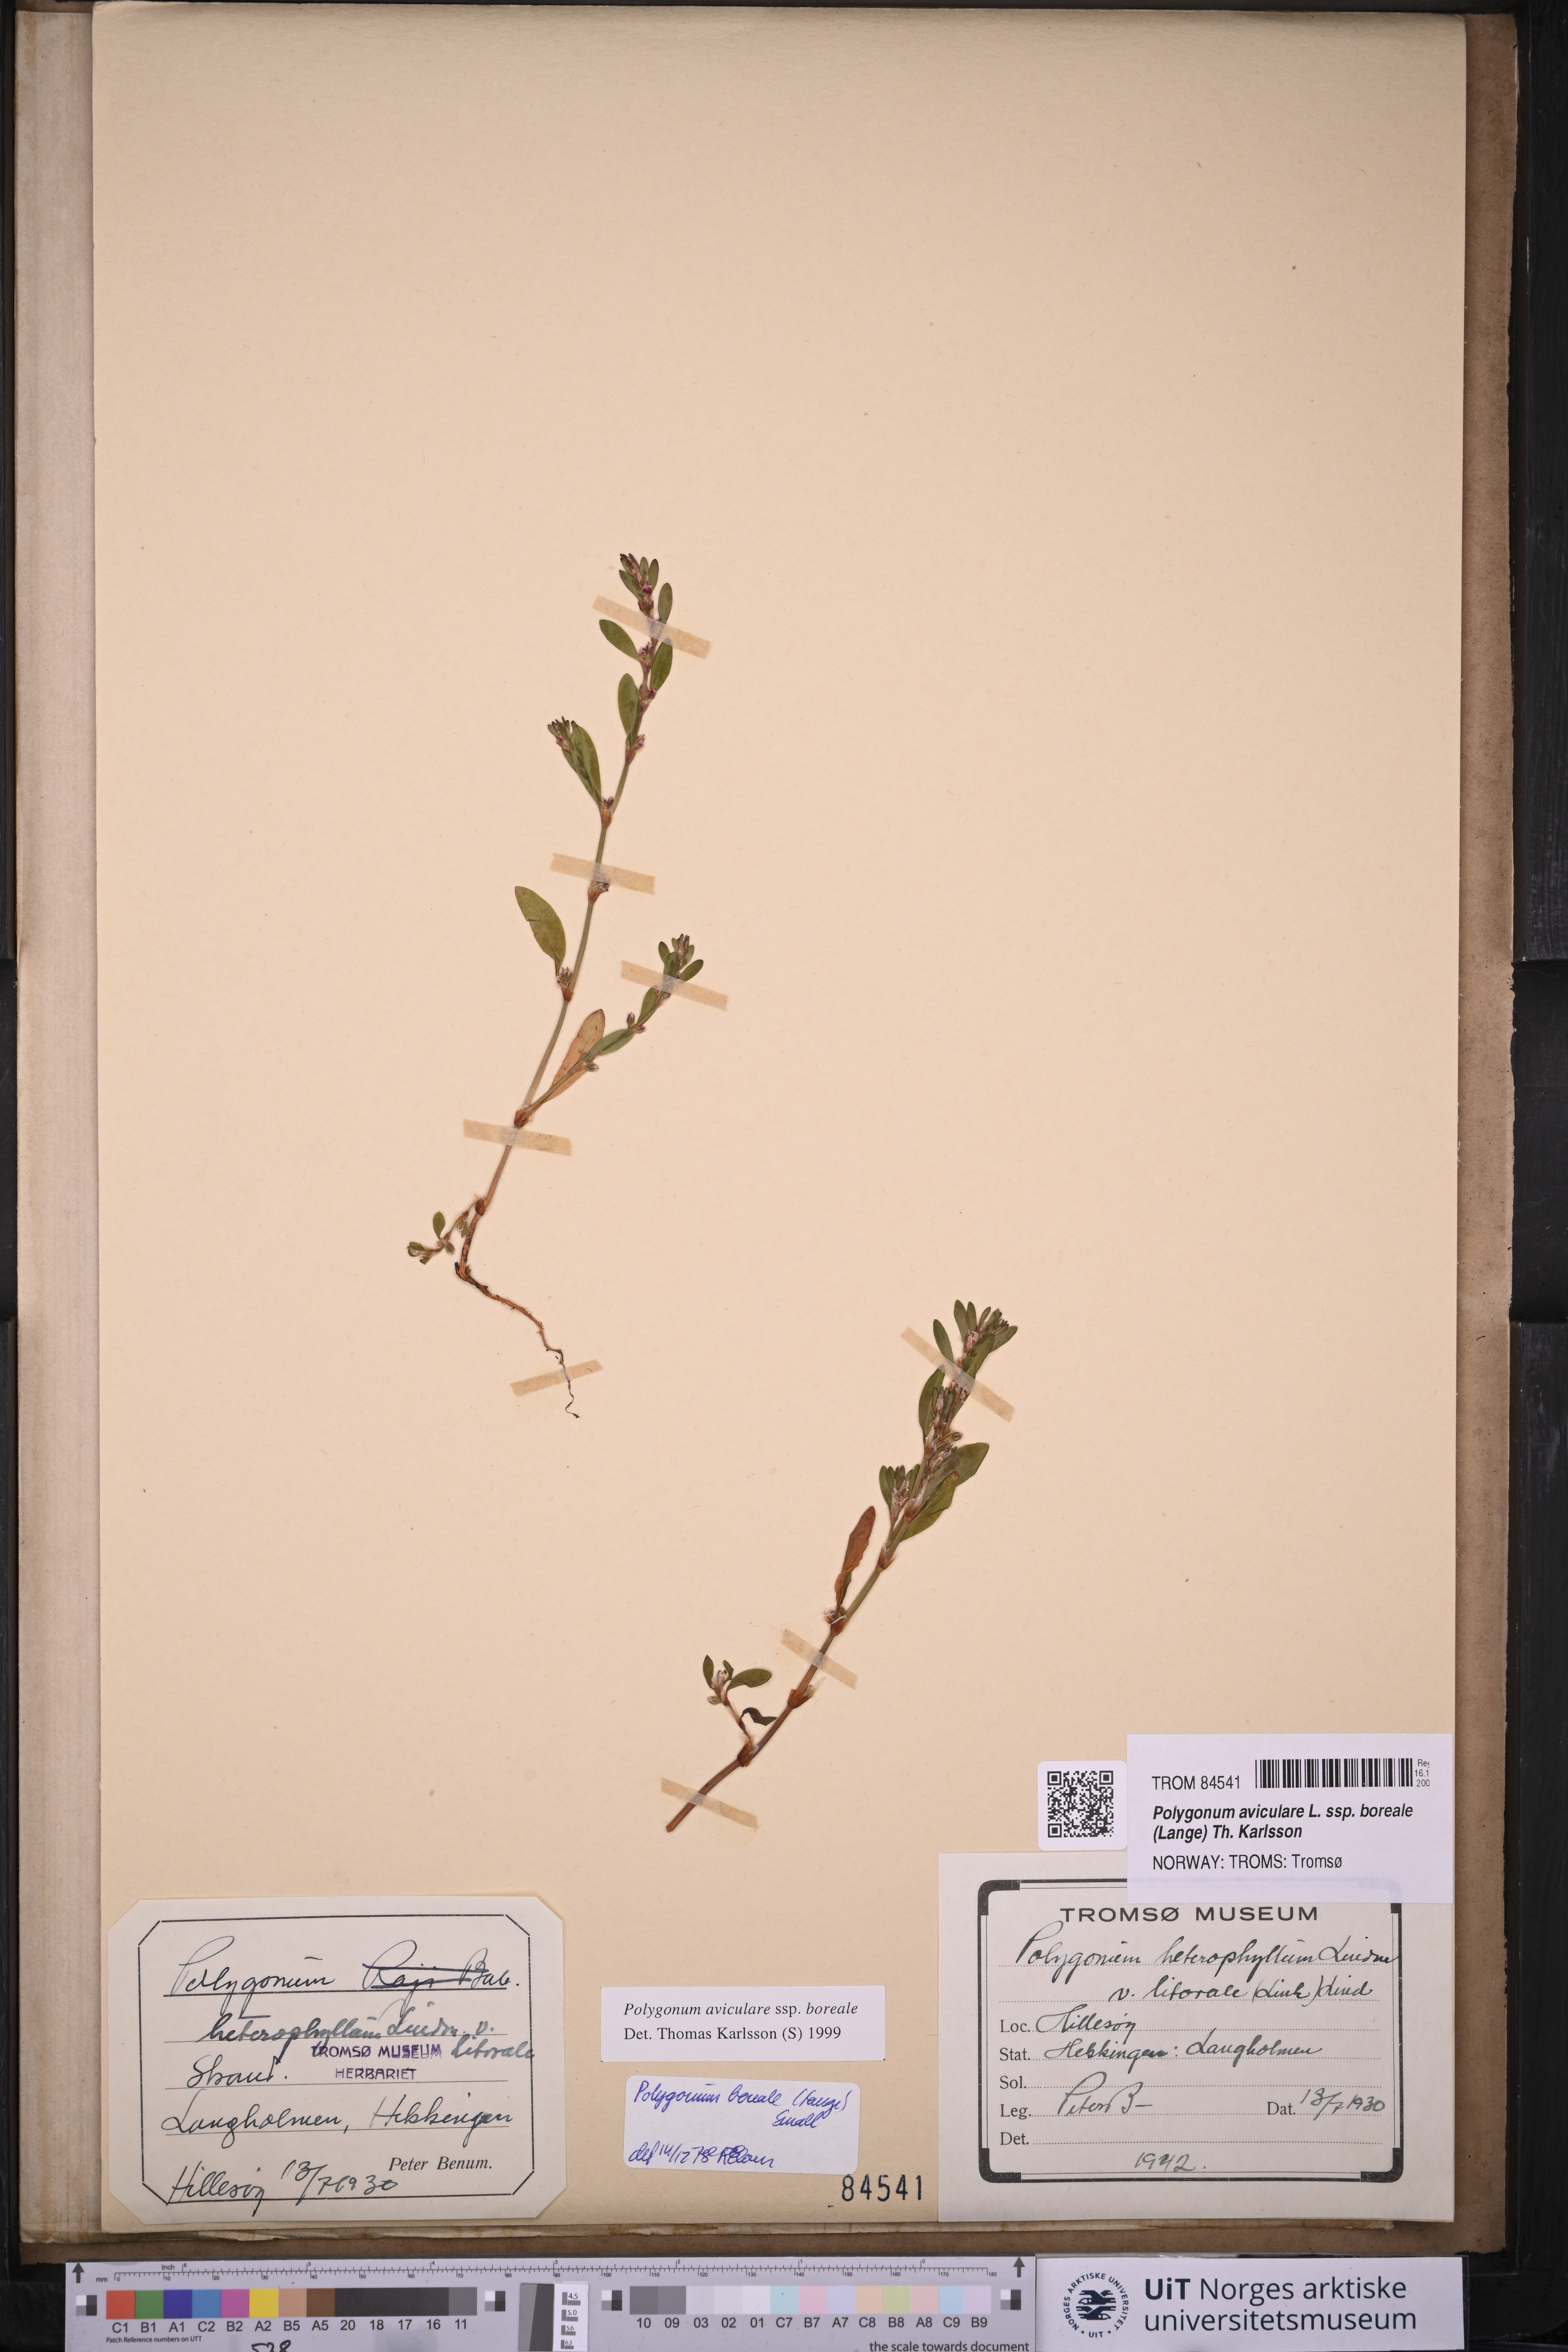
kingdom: Plantae
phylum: Tracheophyta
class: Magnoliopsida
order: Caryophyllales
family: Polygonaceae
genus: Polygonum
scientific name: Polygonum boreale
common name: Northern knotgrass
